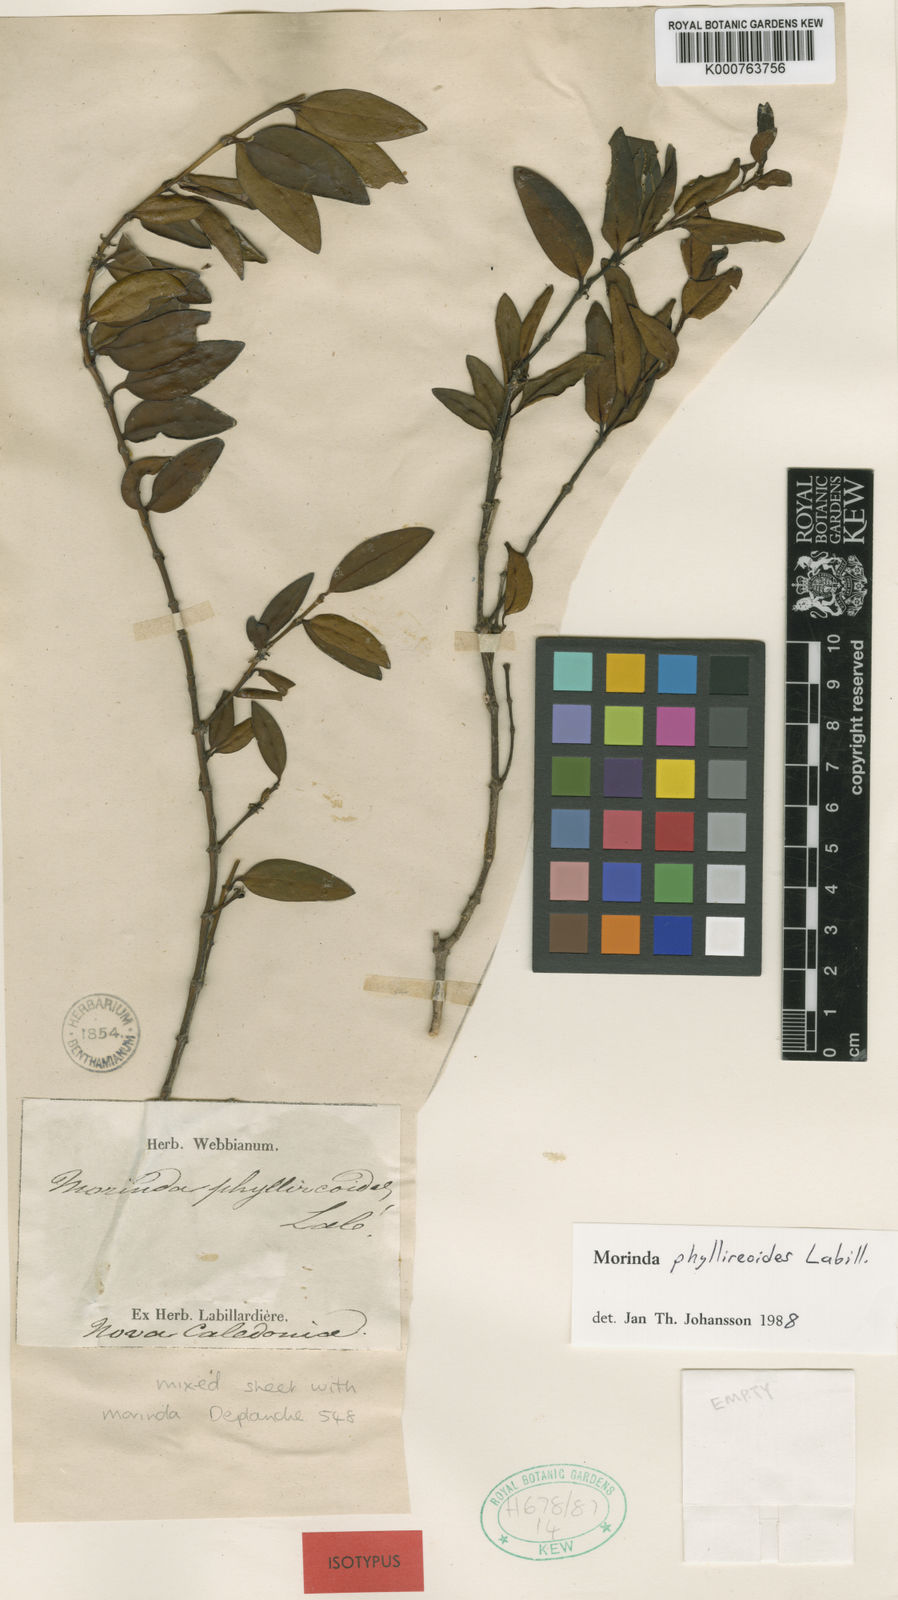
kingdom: Plantae
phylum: Tracheophyta
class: Magnoliopsida
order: Gentianales
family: Rubiaceae
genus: Gynochthodes
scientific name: Gynochthodes phyllireoides
